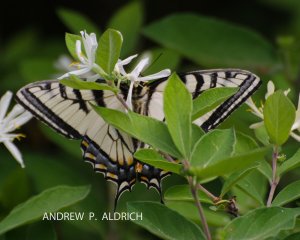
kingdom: Animalia
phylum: Arthropoda
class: Insecta
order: Lepidoptera
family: Papilionidae
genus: Pterourus
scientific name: Pterourus canadensis
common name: Canadian Tiger Swallowtail
